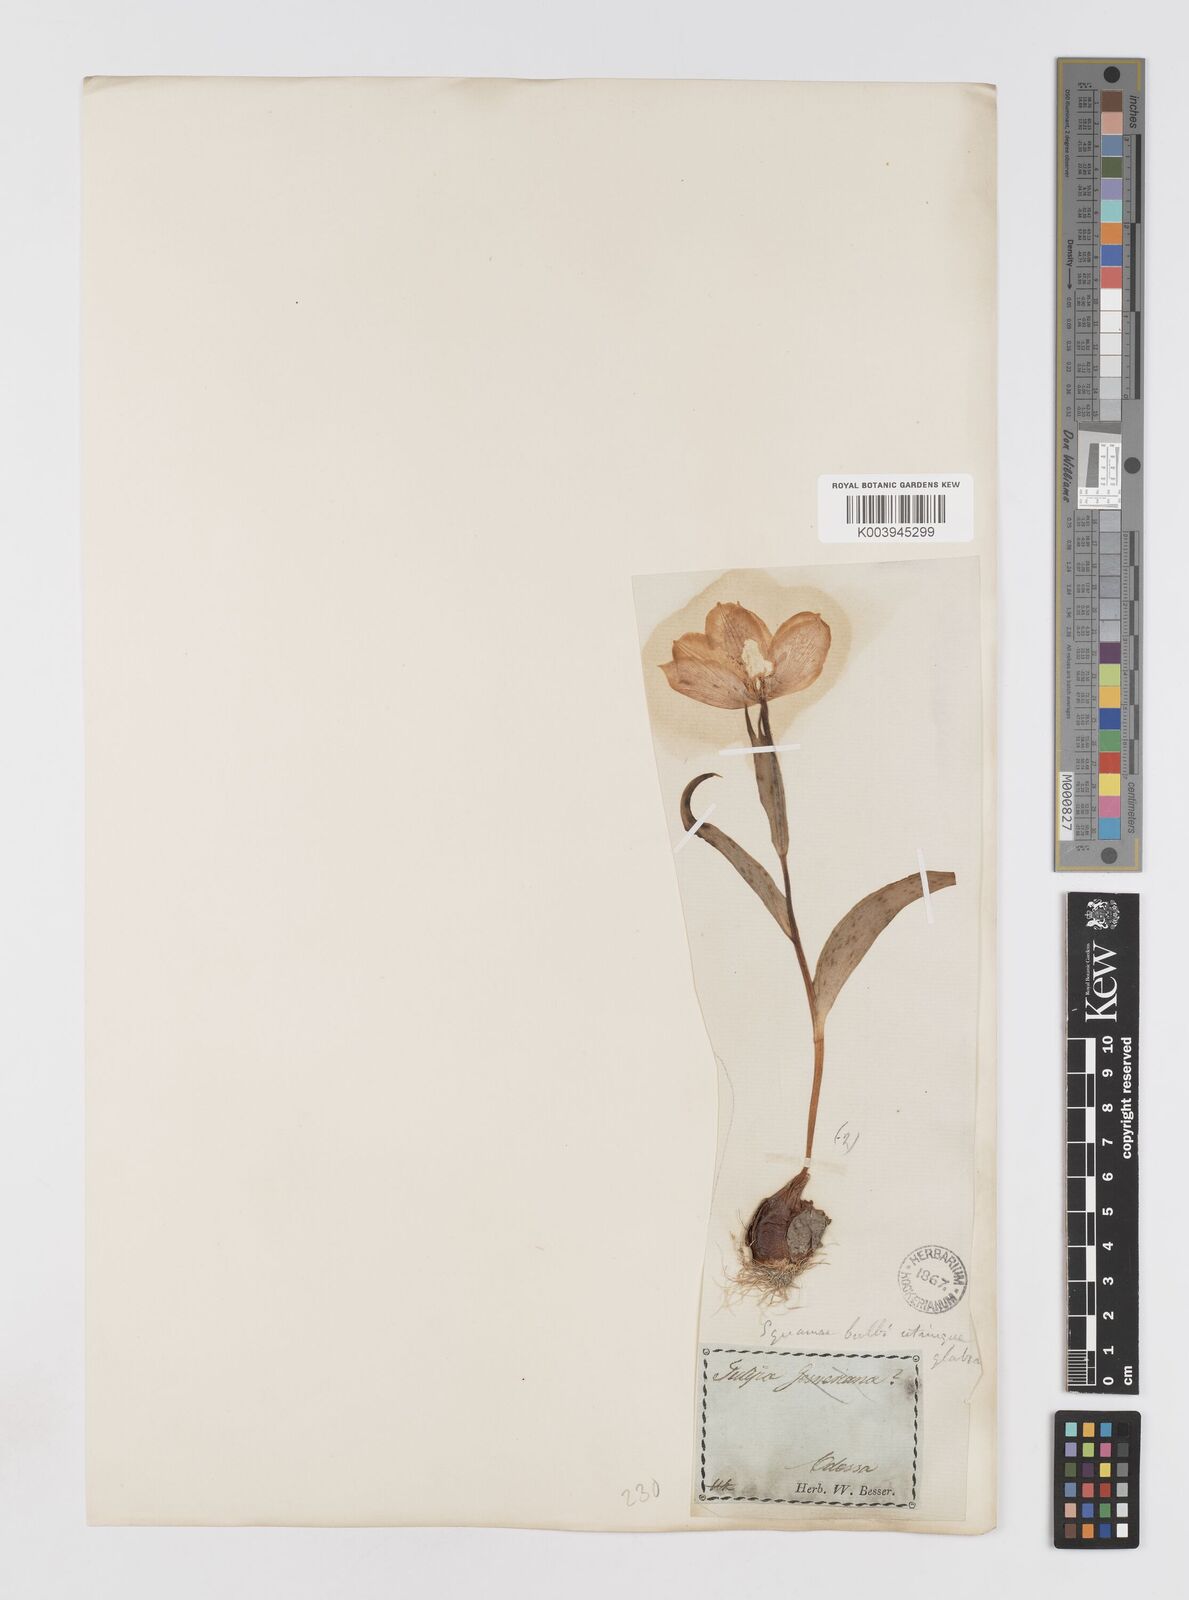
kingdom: Plantae
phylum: Tracheophyta
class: Liliopsida
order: Liliales
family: Liliaceae
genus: Tulipa
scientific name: Tulipa gesneriana
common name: Garden tulip
